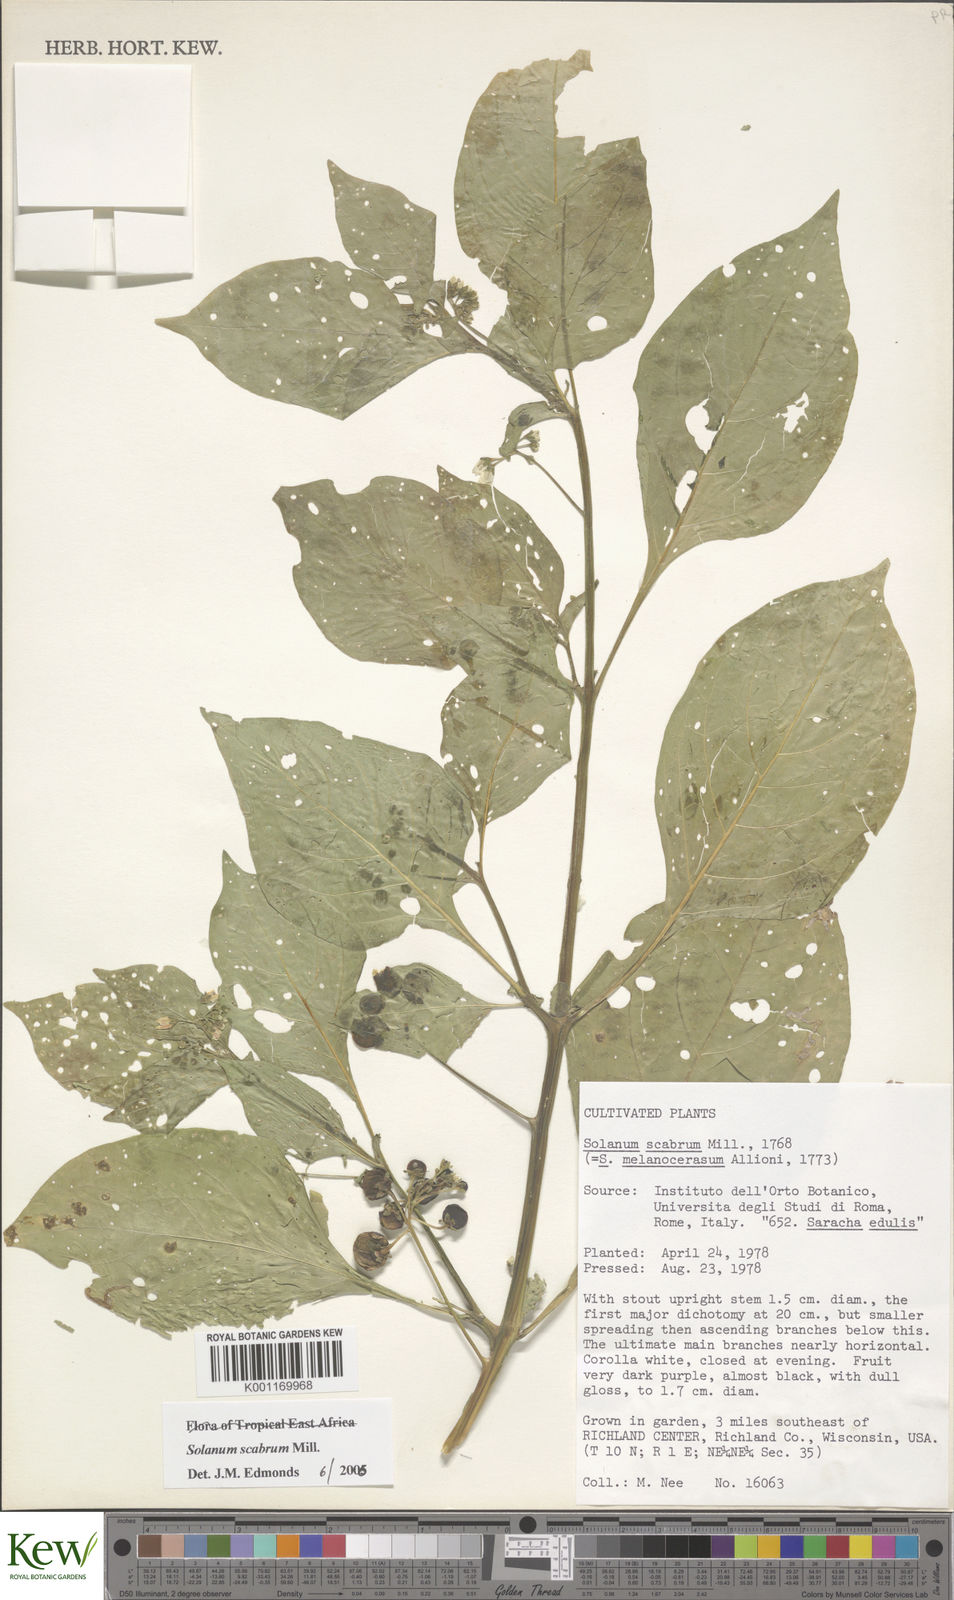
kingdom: Plantae
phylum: Tracheophyta
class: Magnoliopsida
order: Solanales
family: Solanaceae
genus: Solanum
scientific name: Solanum scabrum
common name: Garden-huckleberry
